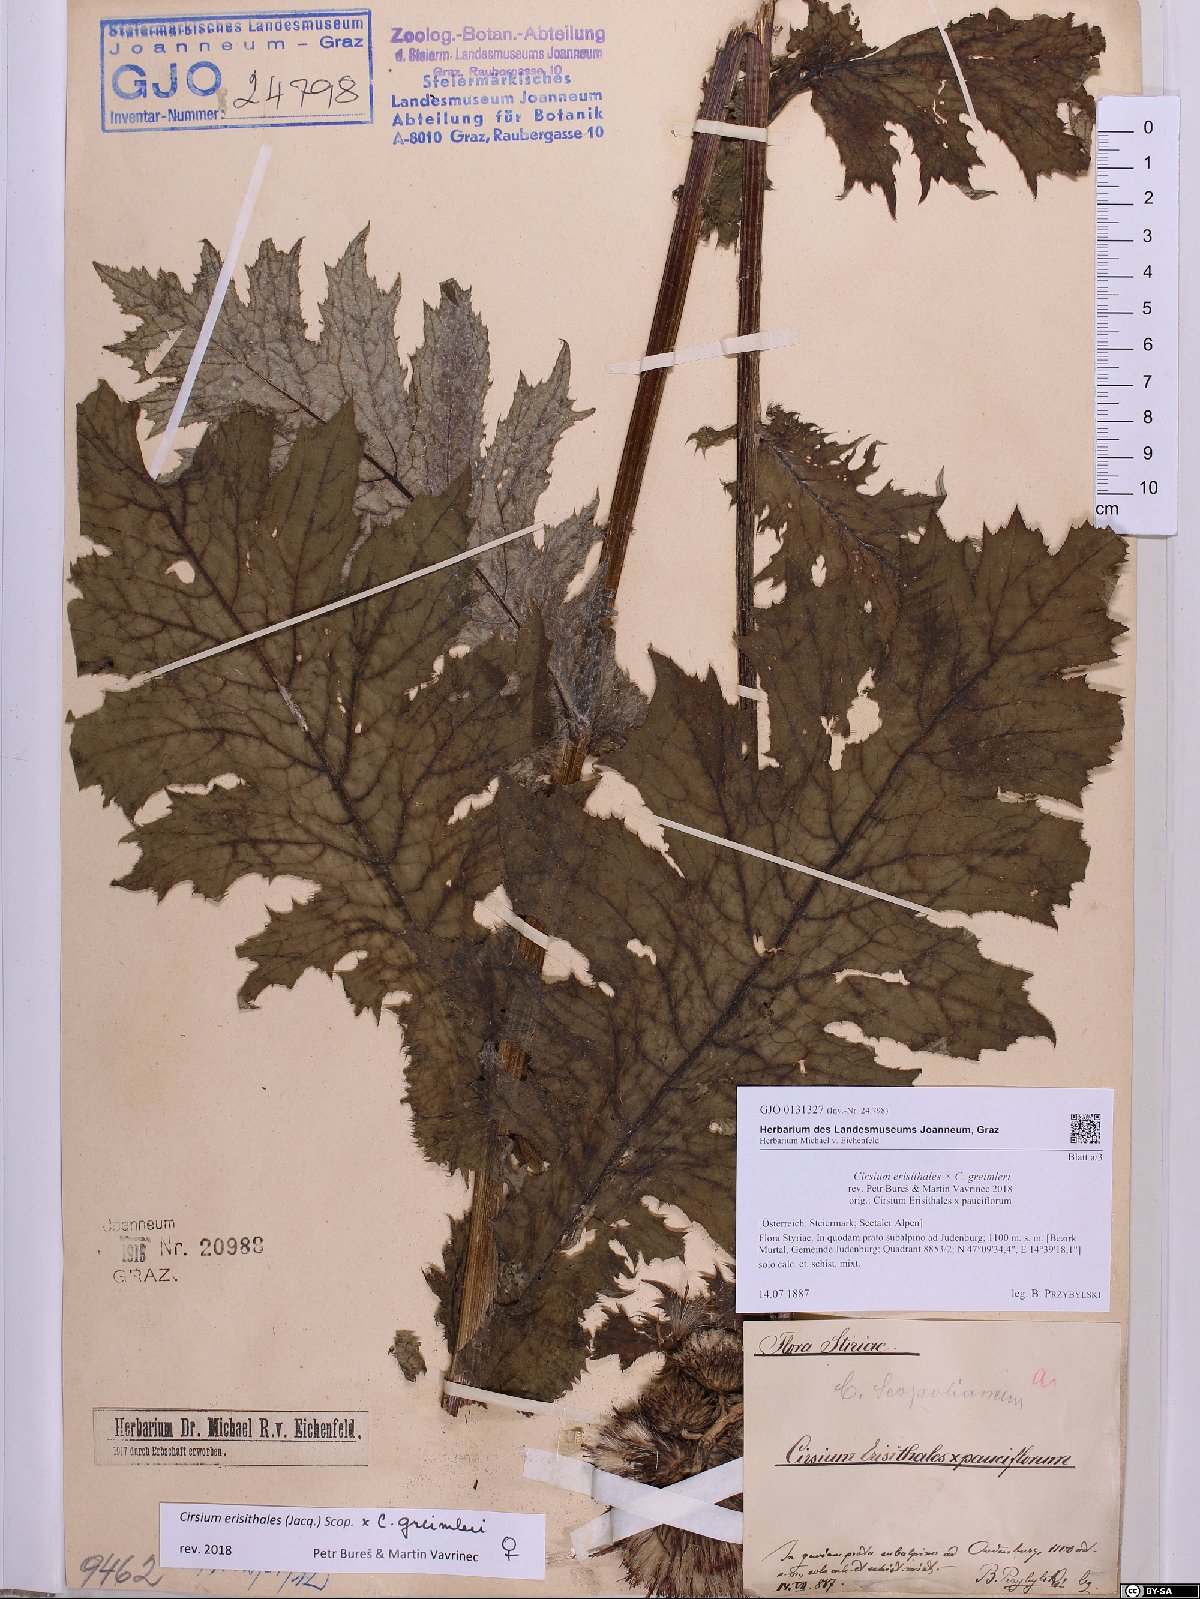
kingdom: Plantae
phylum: Tracheophyta
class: Magnoliopsida
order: Asterales
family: Asteraceae
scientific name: Asteraceae
